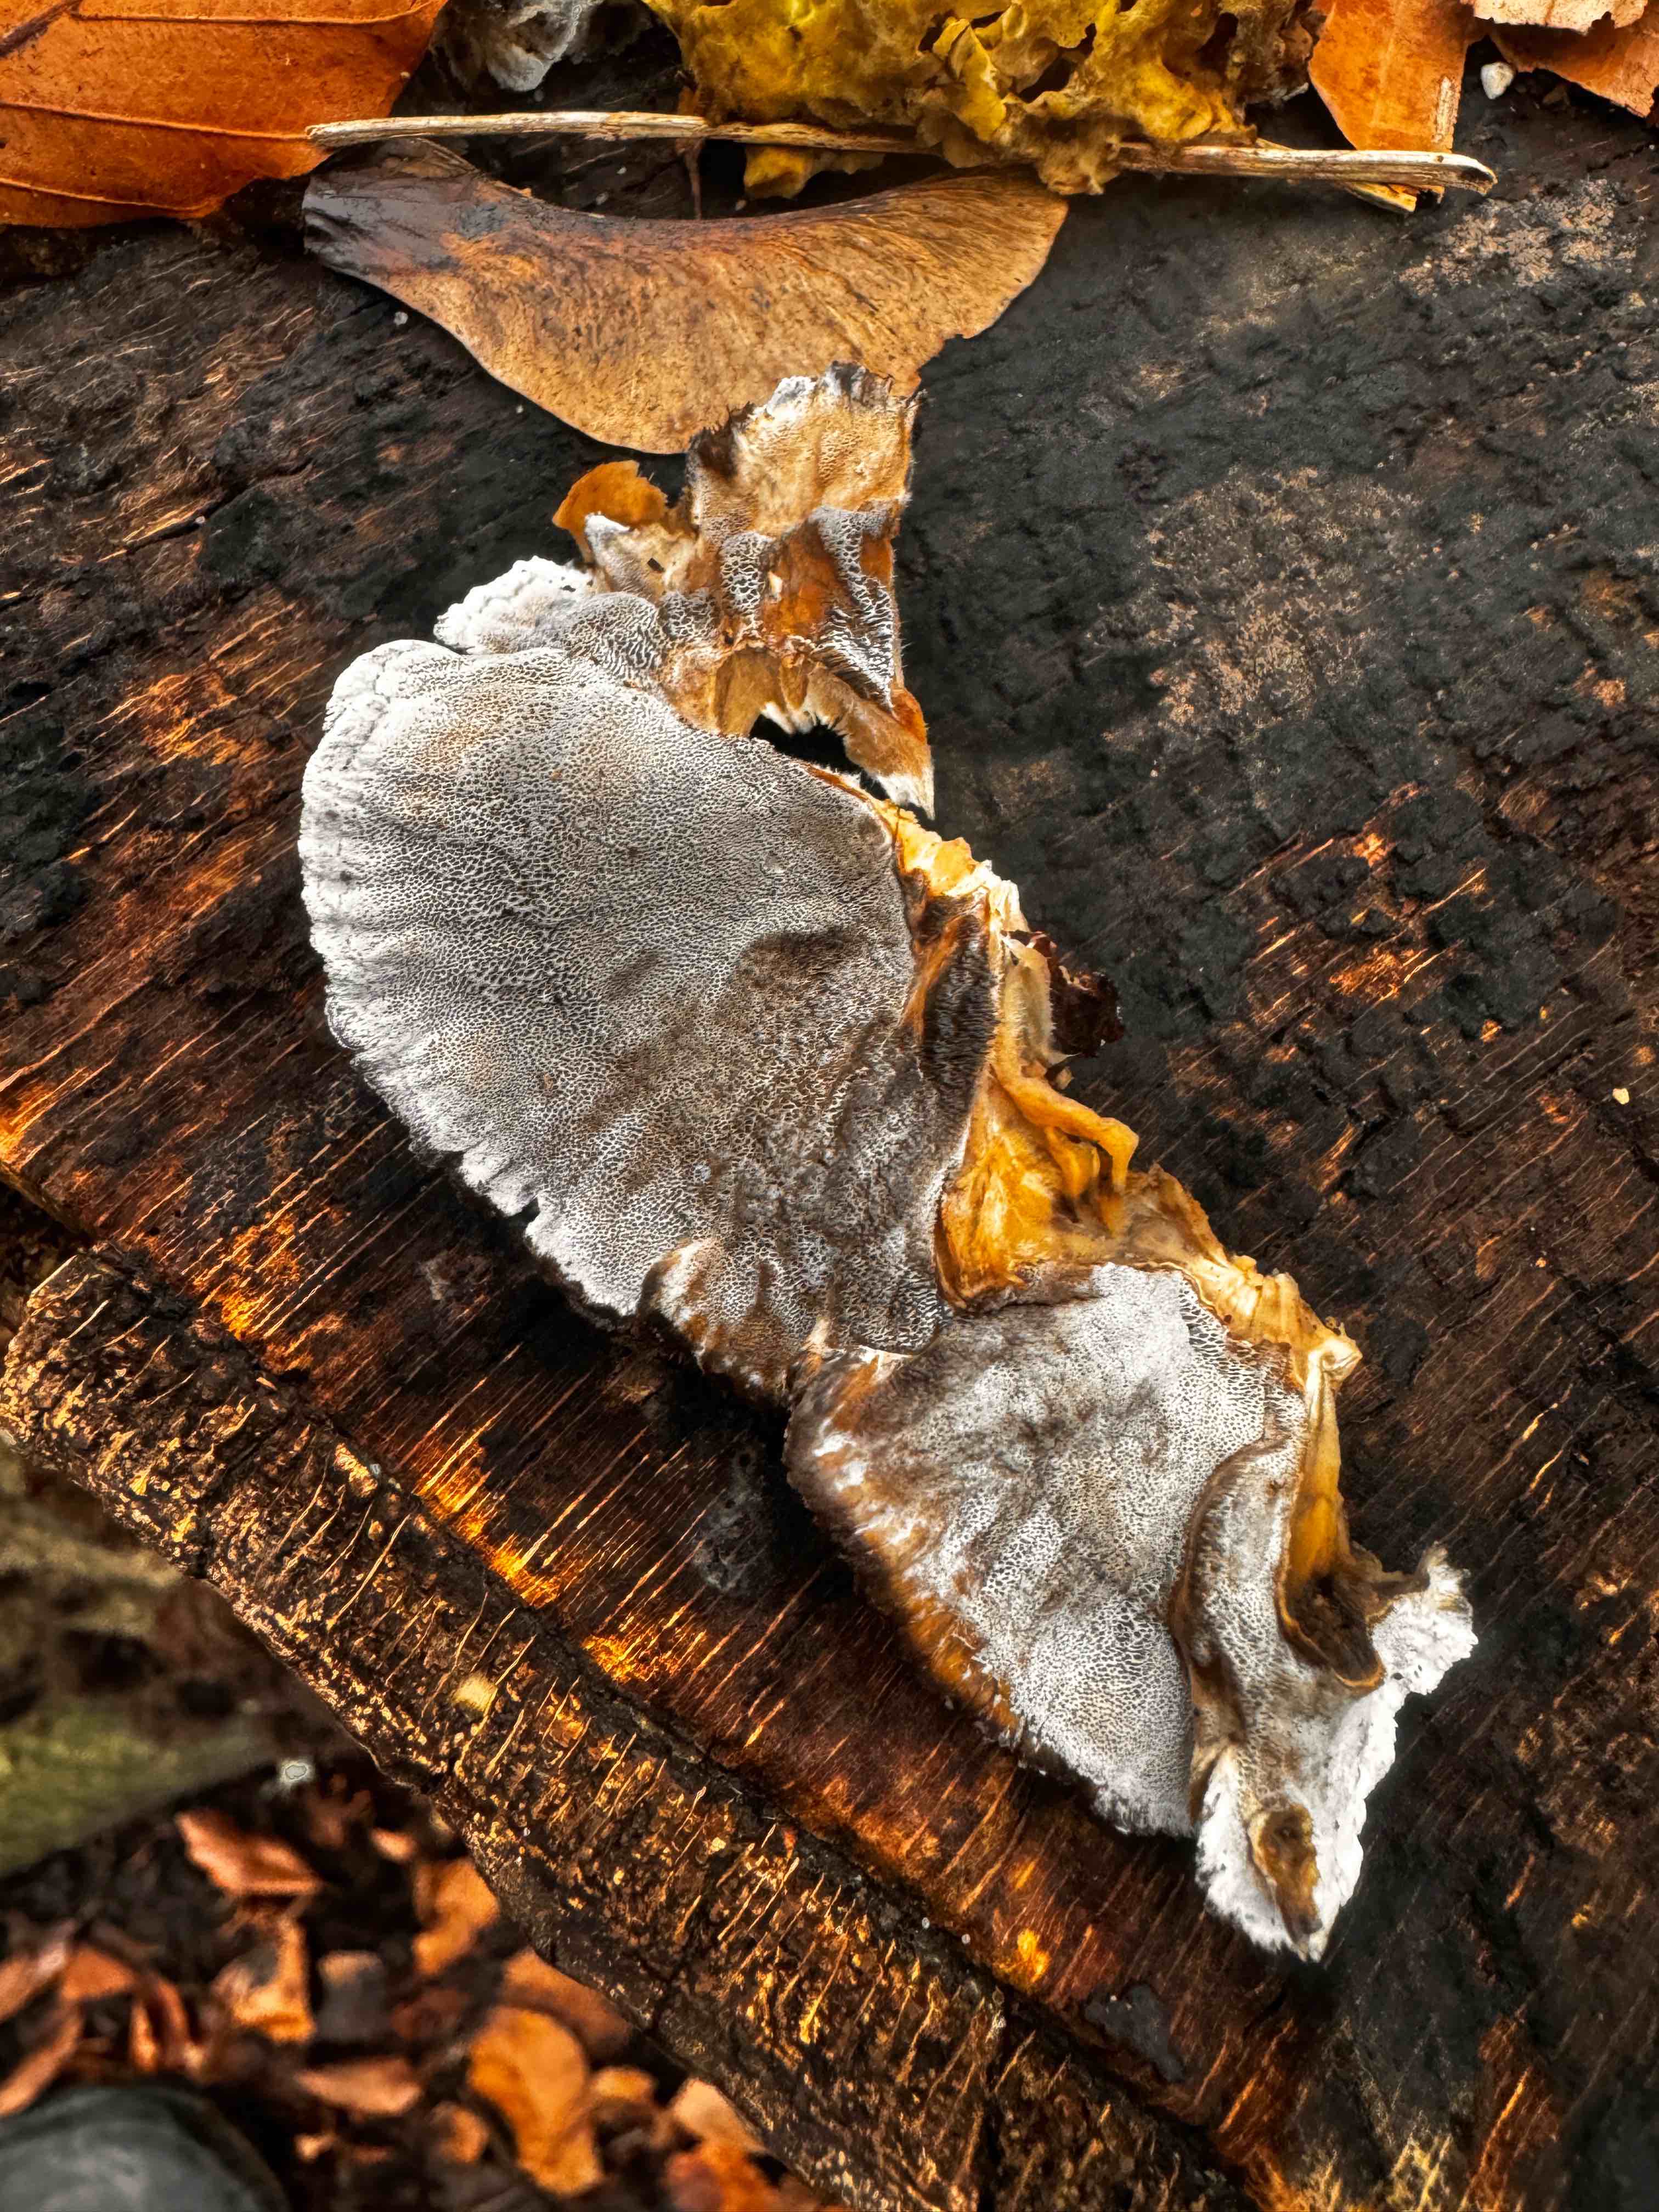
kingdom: Fungi
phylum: Basidiomycota
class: Agaricomycetes
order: Polyporales
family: Phanerochaetaceae
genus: Bjerkandera
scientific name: Bjerkandera adusta
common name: sveden sodporesvamp
